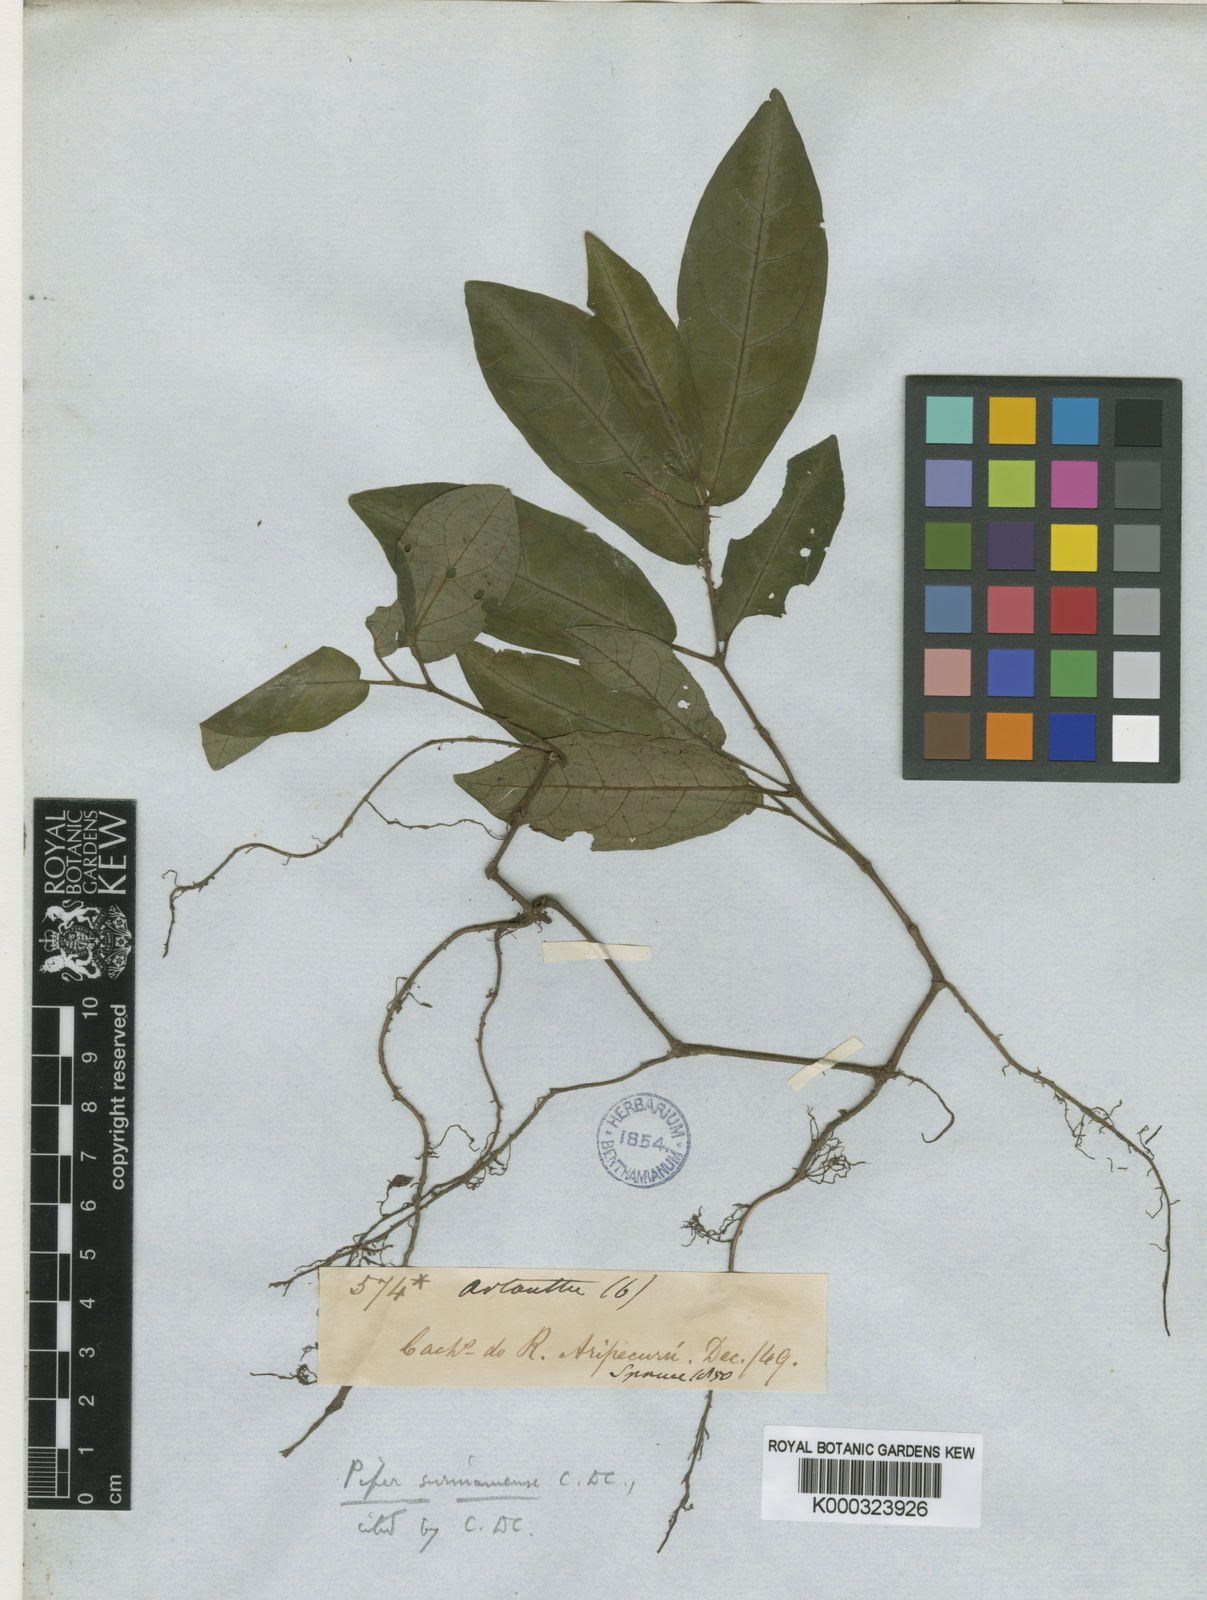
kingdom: Plantae
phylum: Tracheophyta
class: Magnoliopsida
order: Piperales
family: Piperaceae
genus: Piper
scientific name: Piper consanguineum
